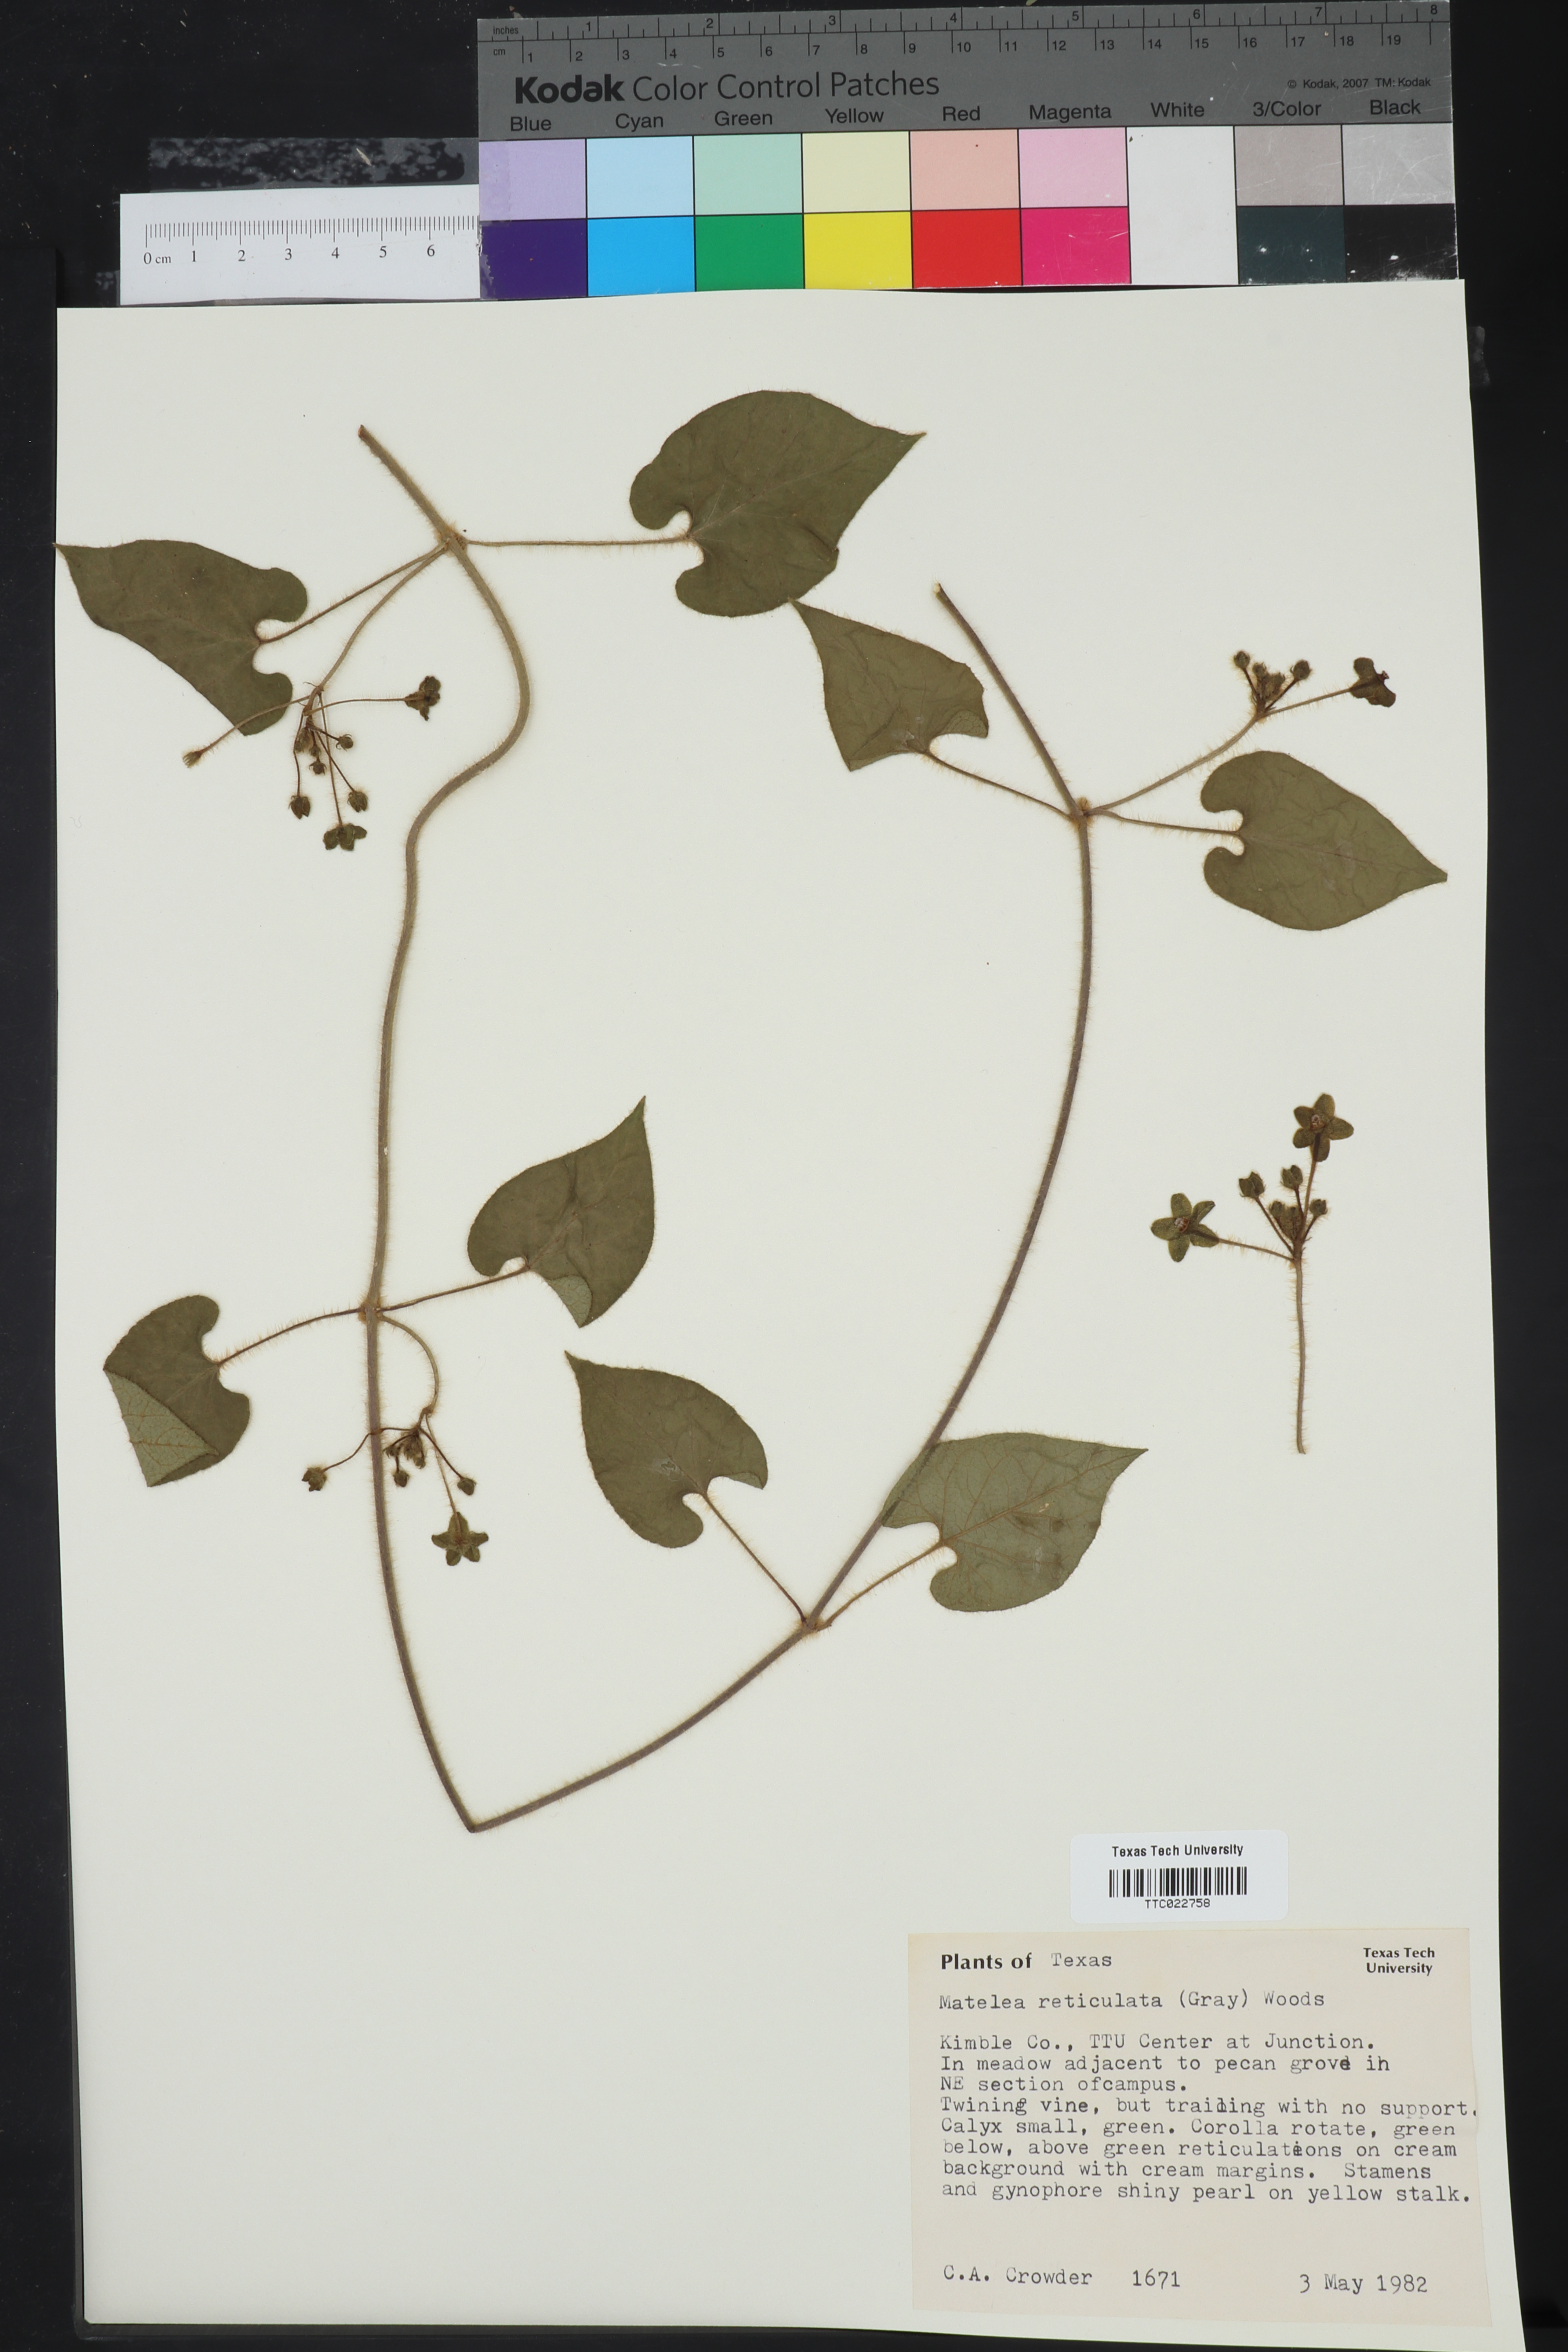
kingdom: Plantae
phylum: Tracheophyta
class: Magnoliopsida
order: Gentianales
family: Apocynaceae
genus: Dictyanthus
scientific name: Dictyanthus reticulatus
